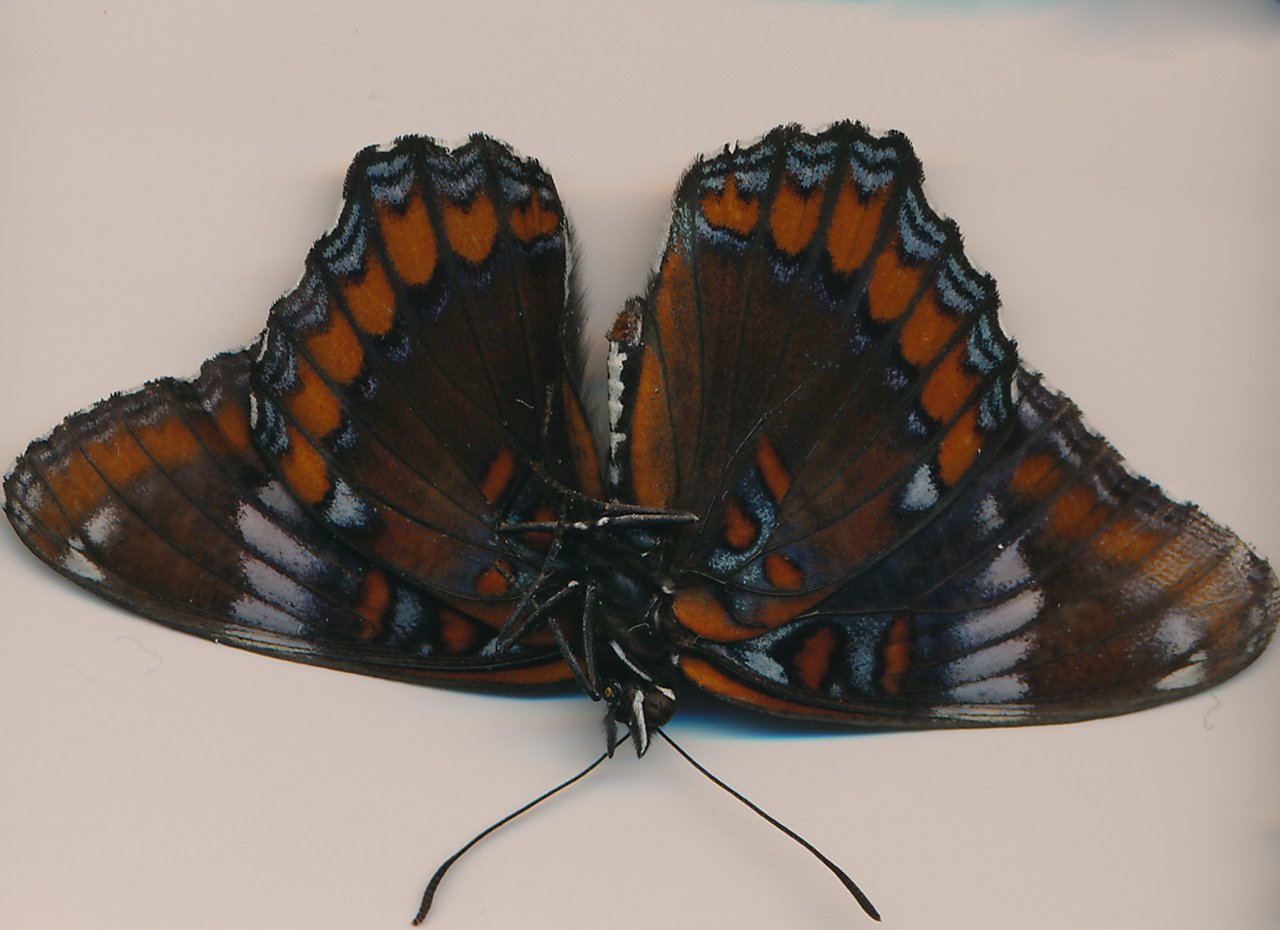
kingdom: Animalia
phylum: Arthropoda
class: Insecta
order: Lepidoptera
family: Nymphalidae
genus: Limenitis
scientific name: Limenitis
